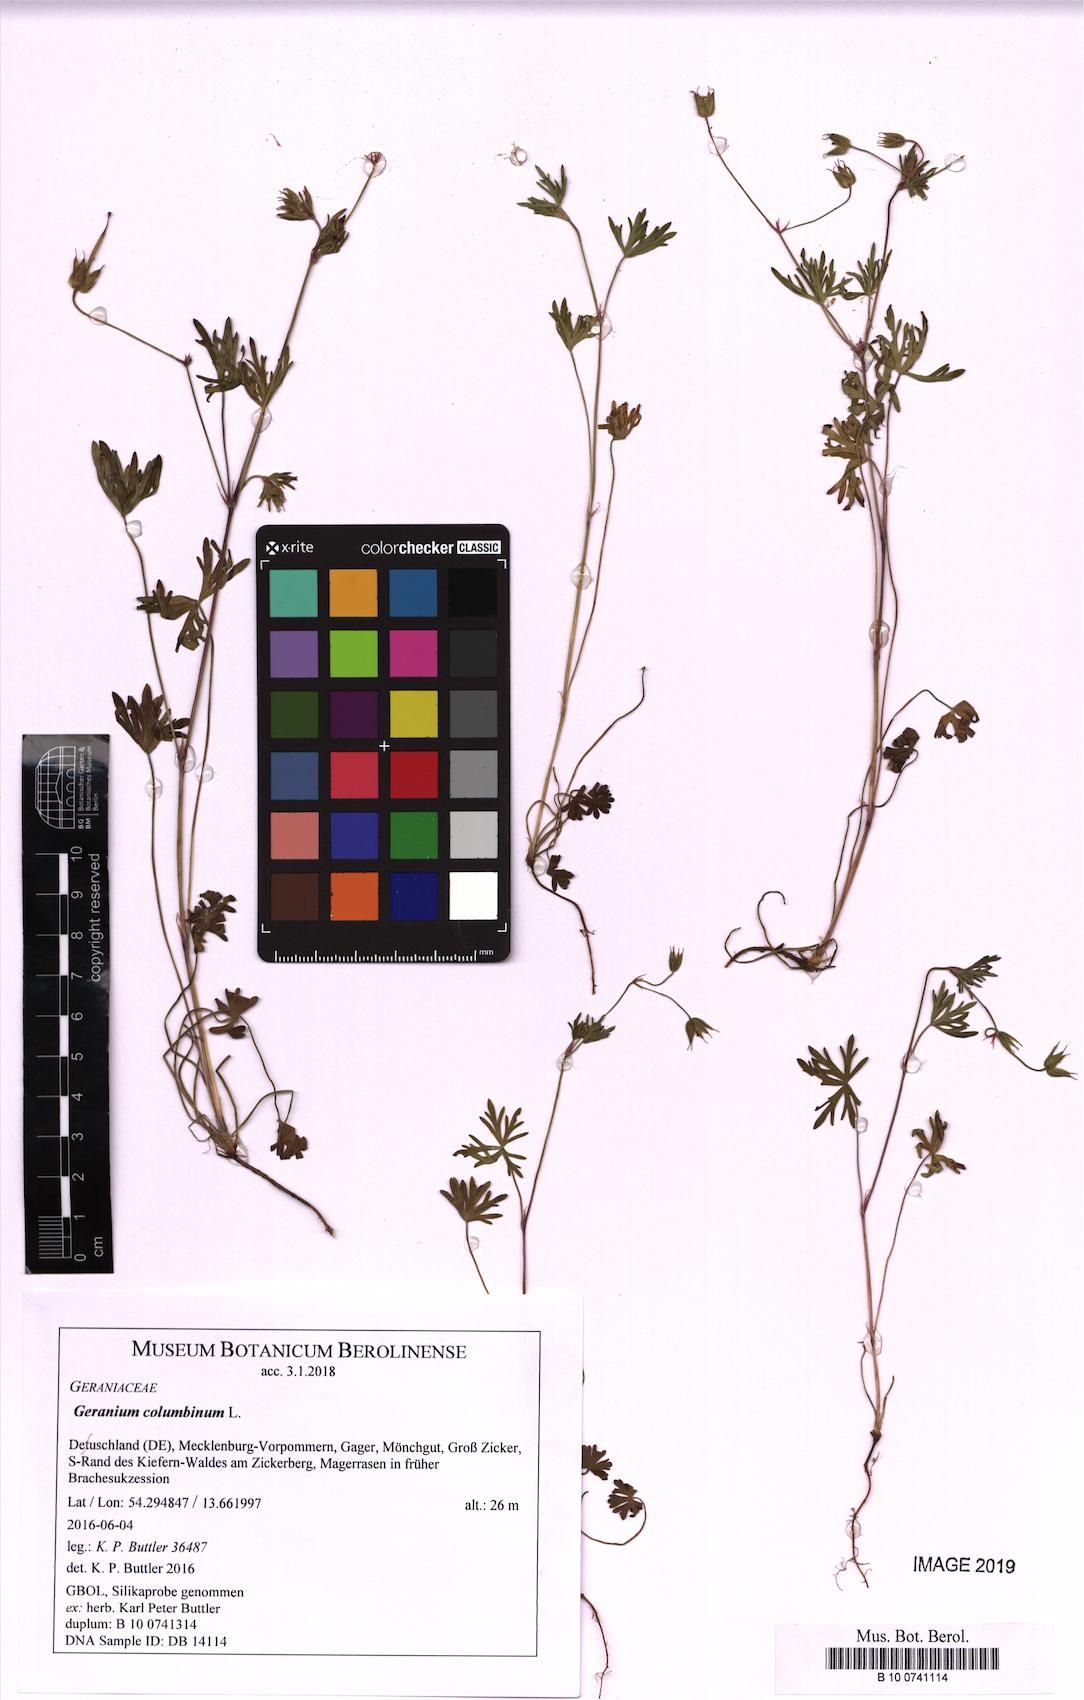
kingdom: Plantae
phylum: Tracheophyta
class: Magnoliopsida
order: Geraniales
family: Geraniaceae
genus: Geranium
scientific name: Geranium columbinum
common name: Long-stalked crane's-bill
